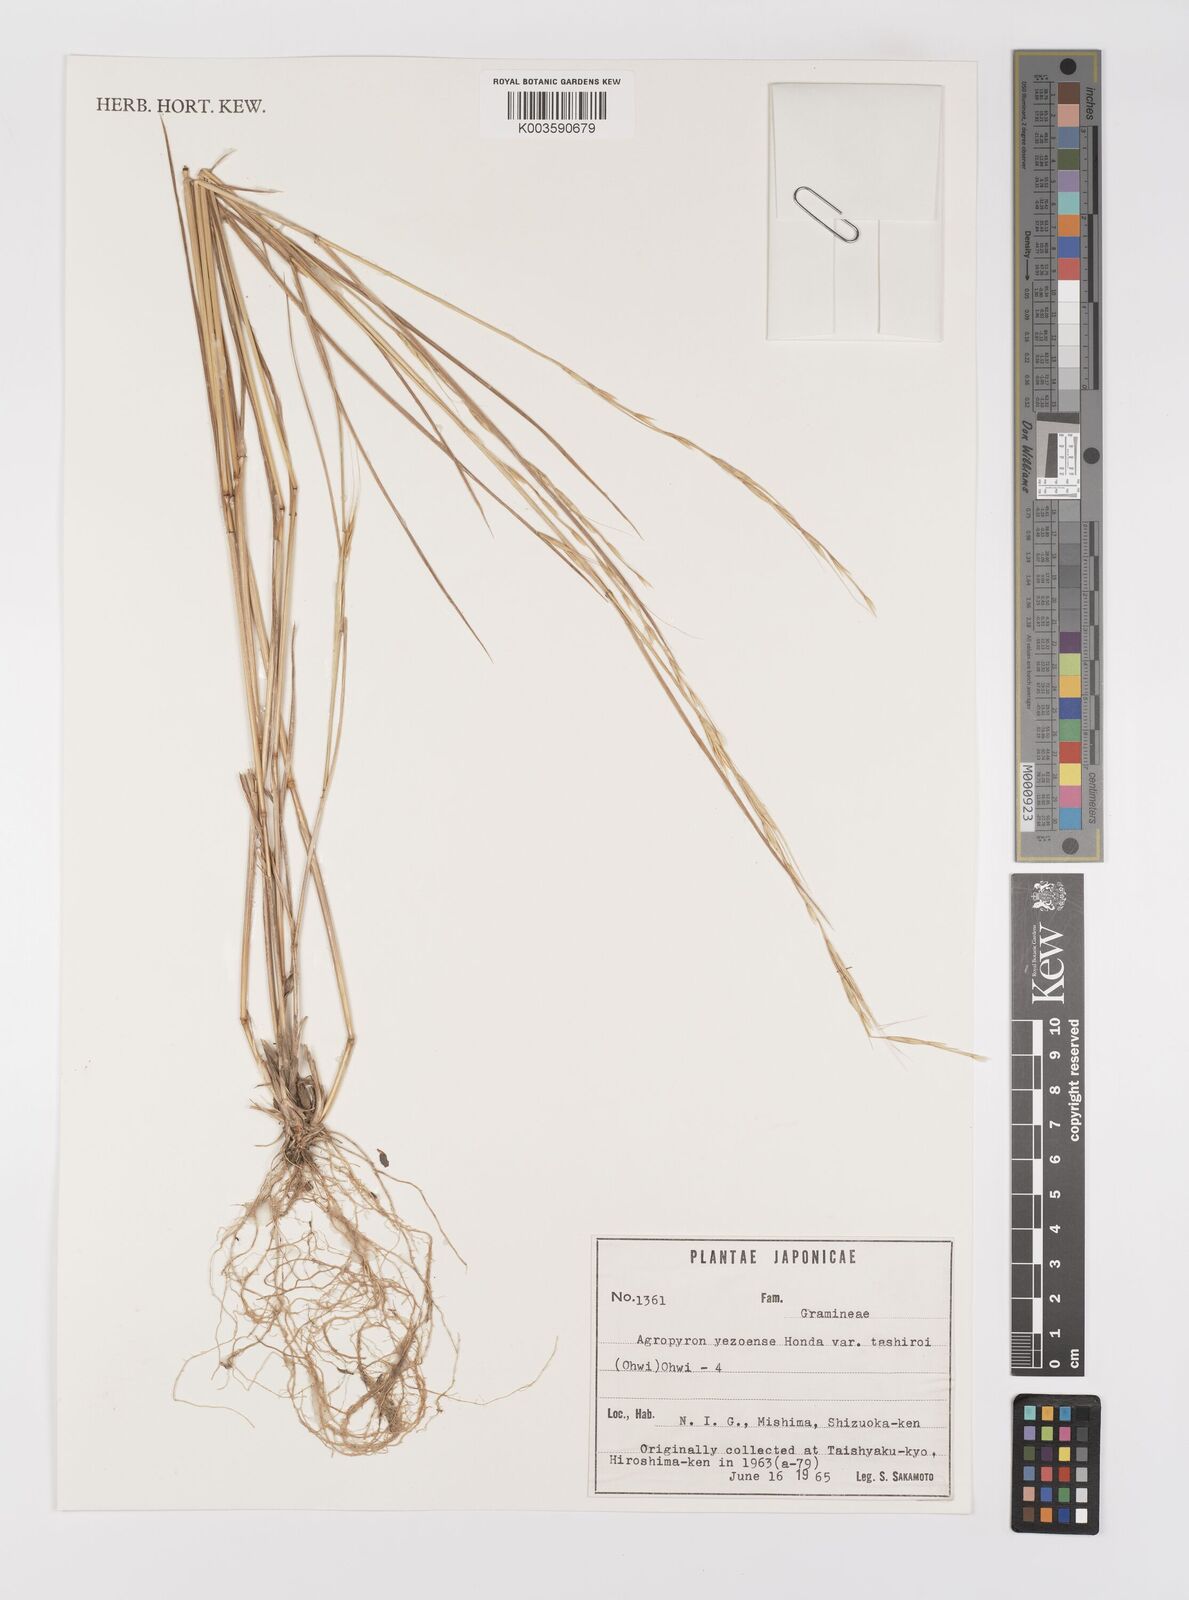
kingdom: Plantae
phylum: Tracheophyta
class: Liliopsida
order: Poales
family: Poaceae
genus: Elymus
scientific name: Elymus nipponicus
